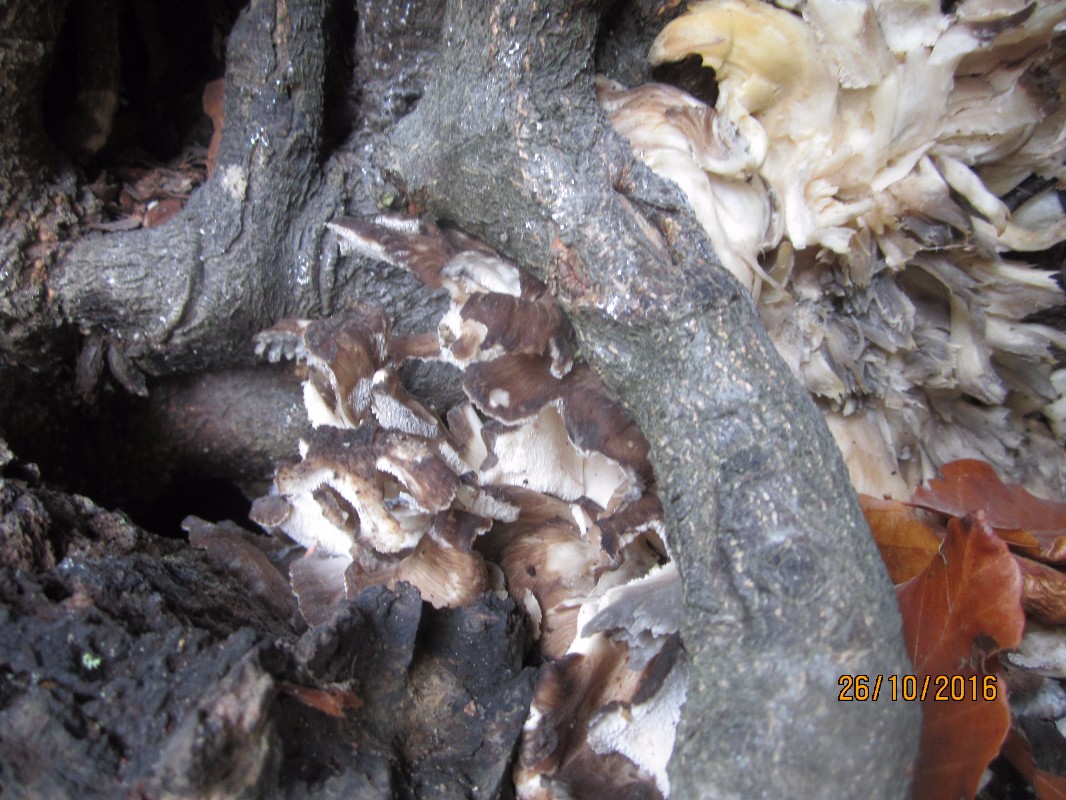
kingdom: Fungi
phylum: Basidiomycota
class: Agaricomycetes
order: Polyporales
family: Grifolaceae
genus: Grifola
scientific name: Grifola frondosa
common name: tueporesvamp
